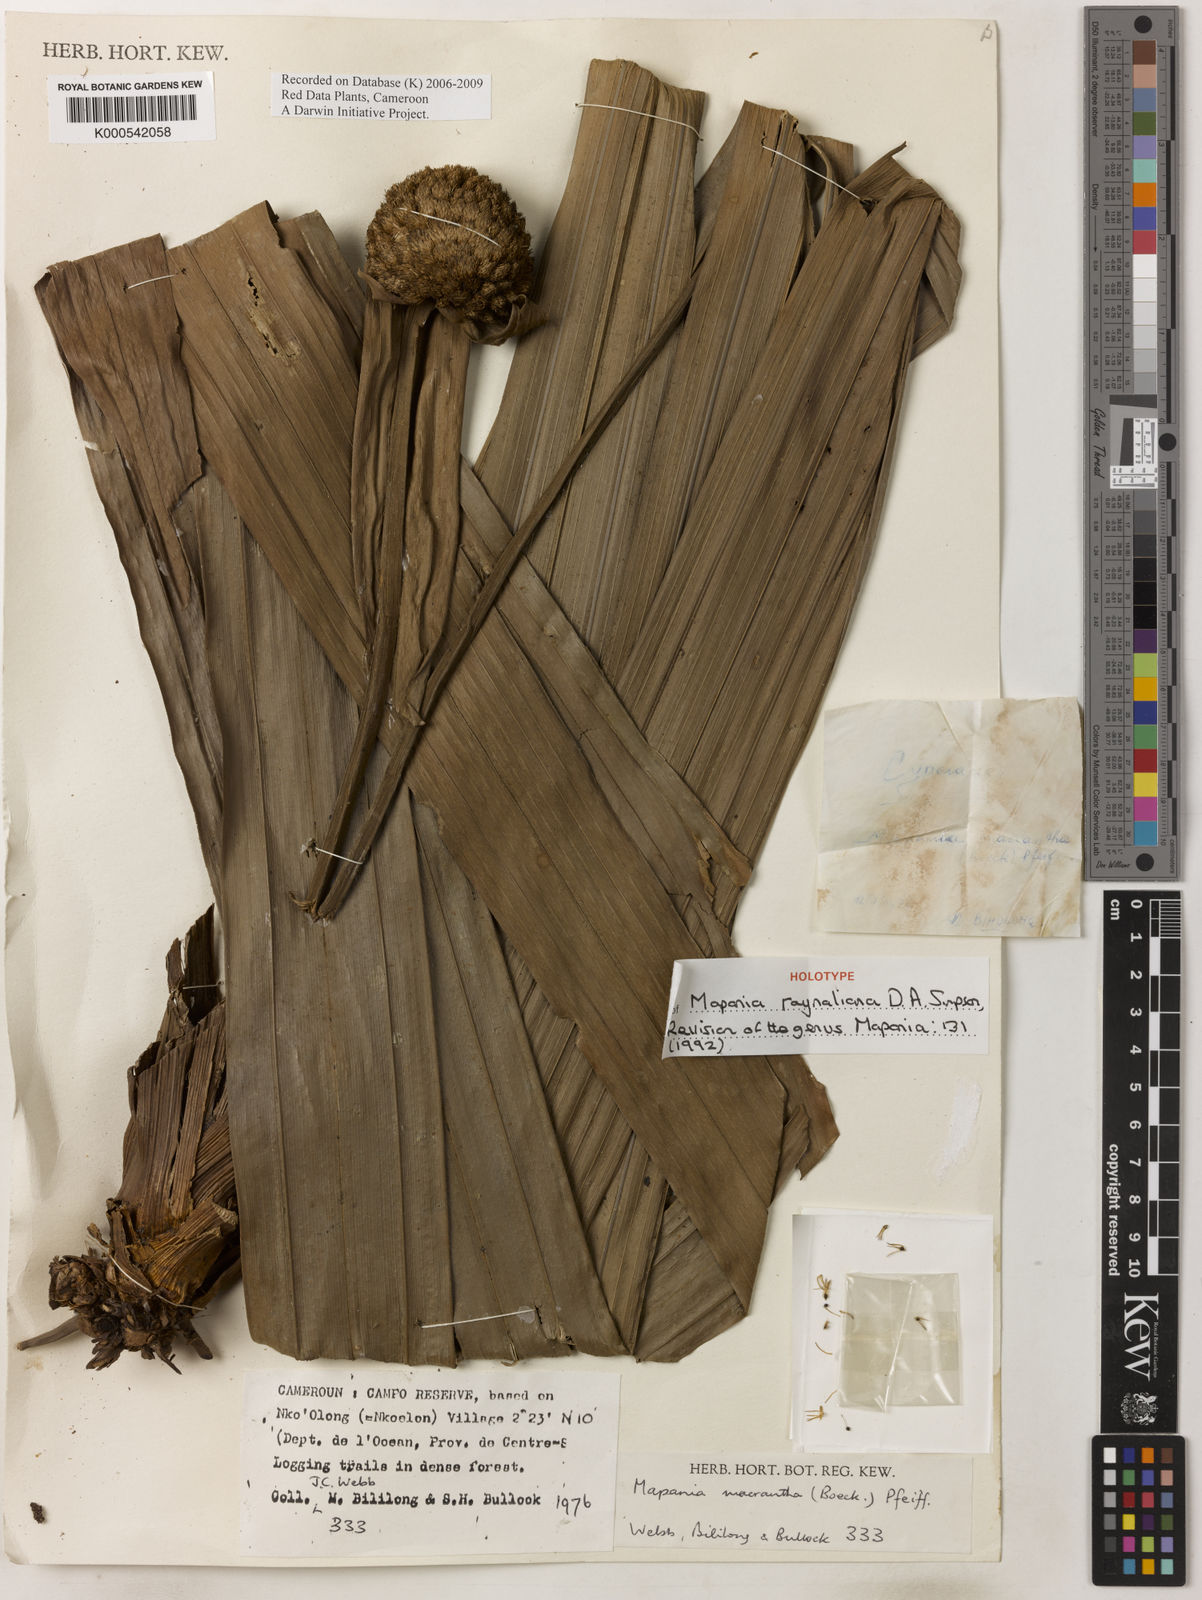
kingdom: Plantae
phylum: Tracheophyta
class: Liliopsida
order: Poales
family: Cyperaceae
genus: Mapania
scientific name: Mapania raynaliana
